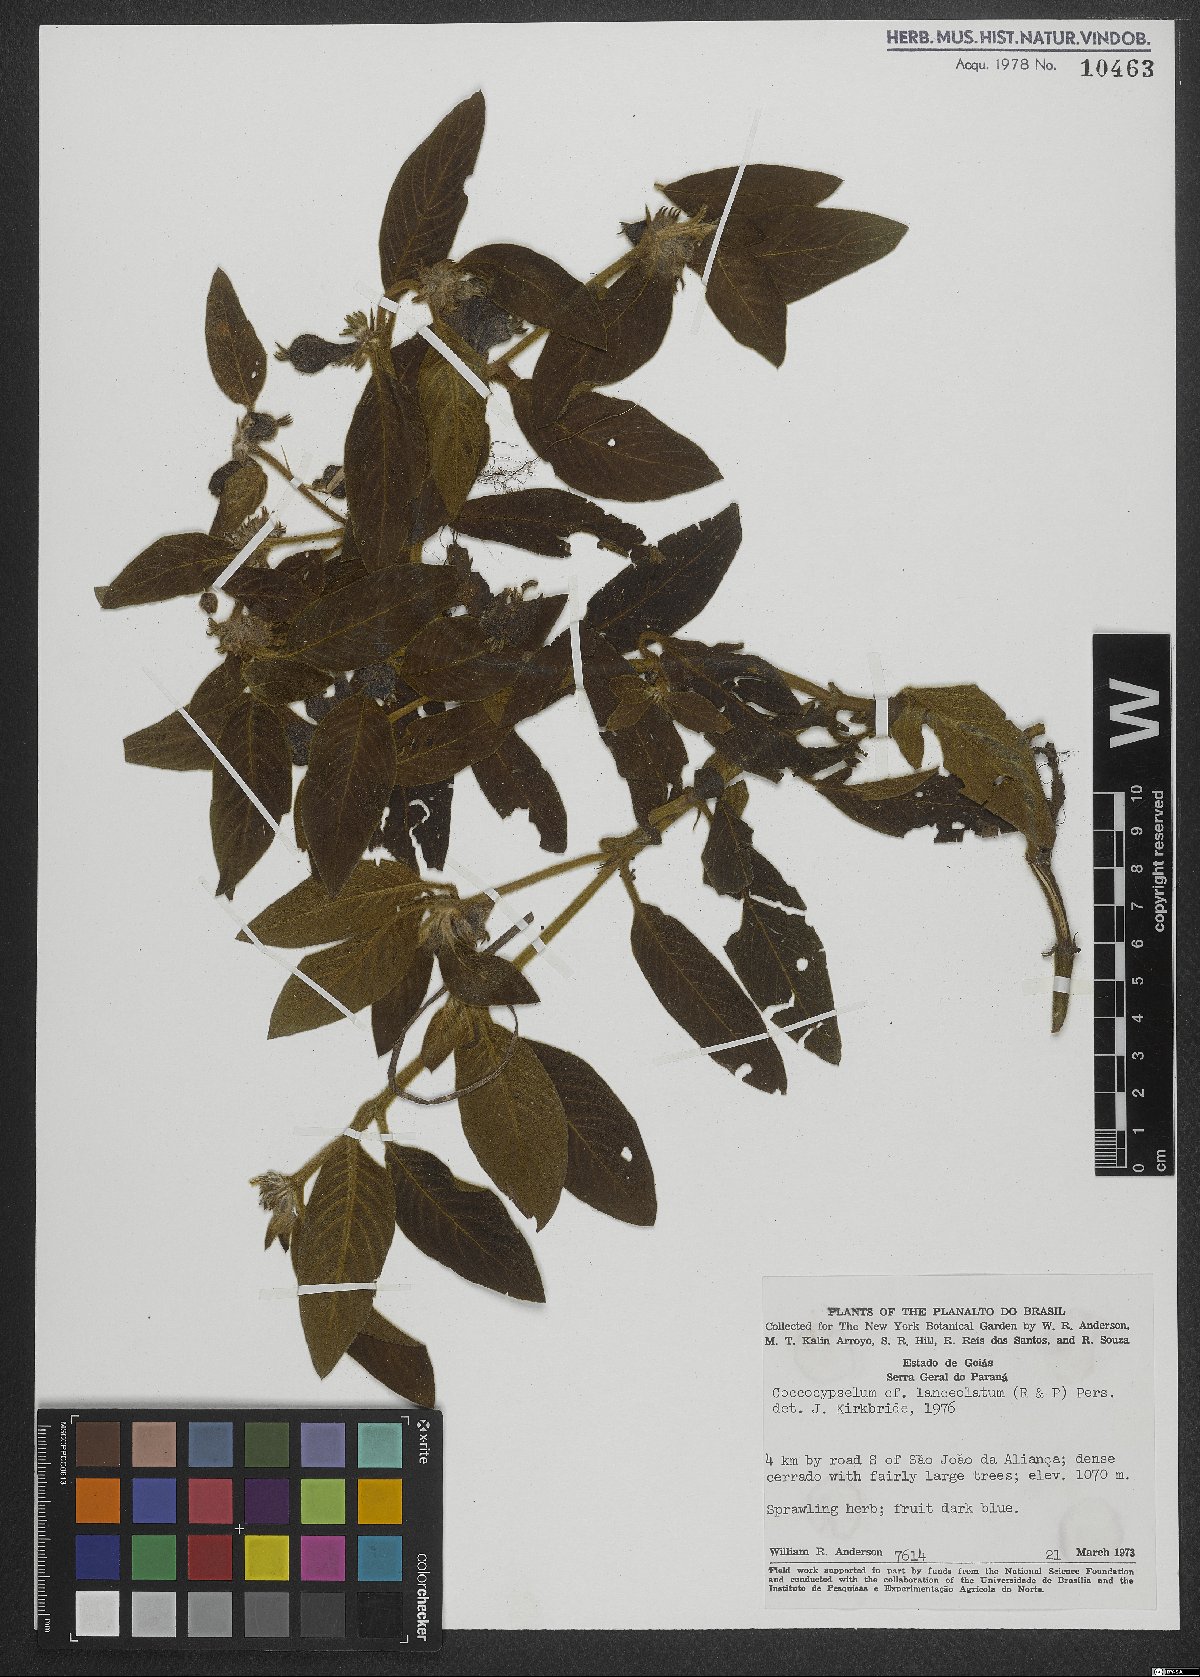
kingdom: Plantae
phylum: Tracheophyta
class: Magnoliopsida
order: Gentianales
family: Rubiaceae
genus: Coccocypselum
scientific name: Coccocypselum lanceolatum
